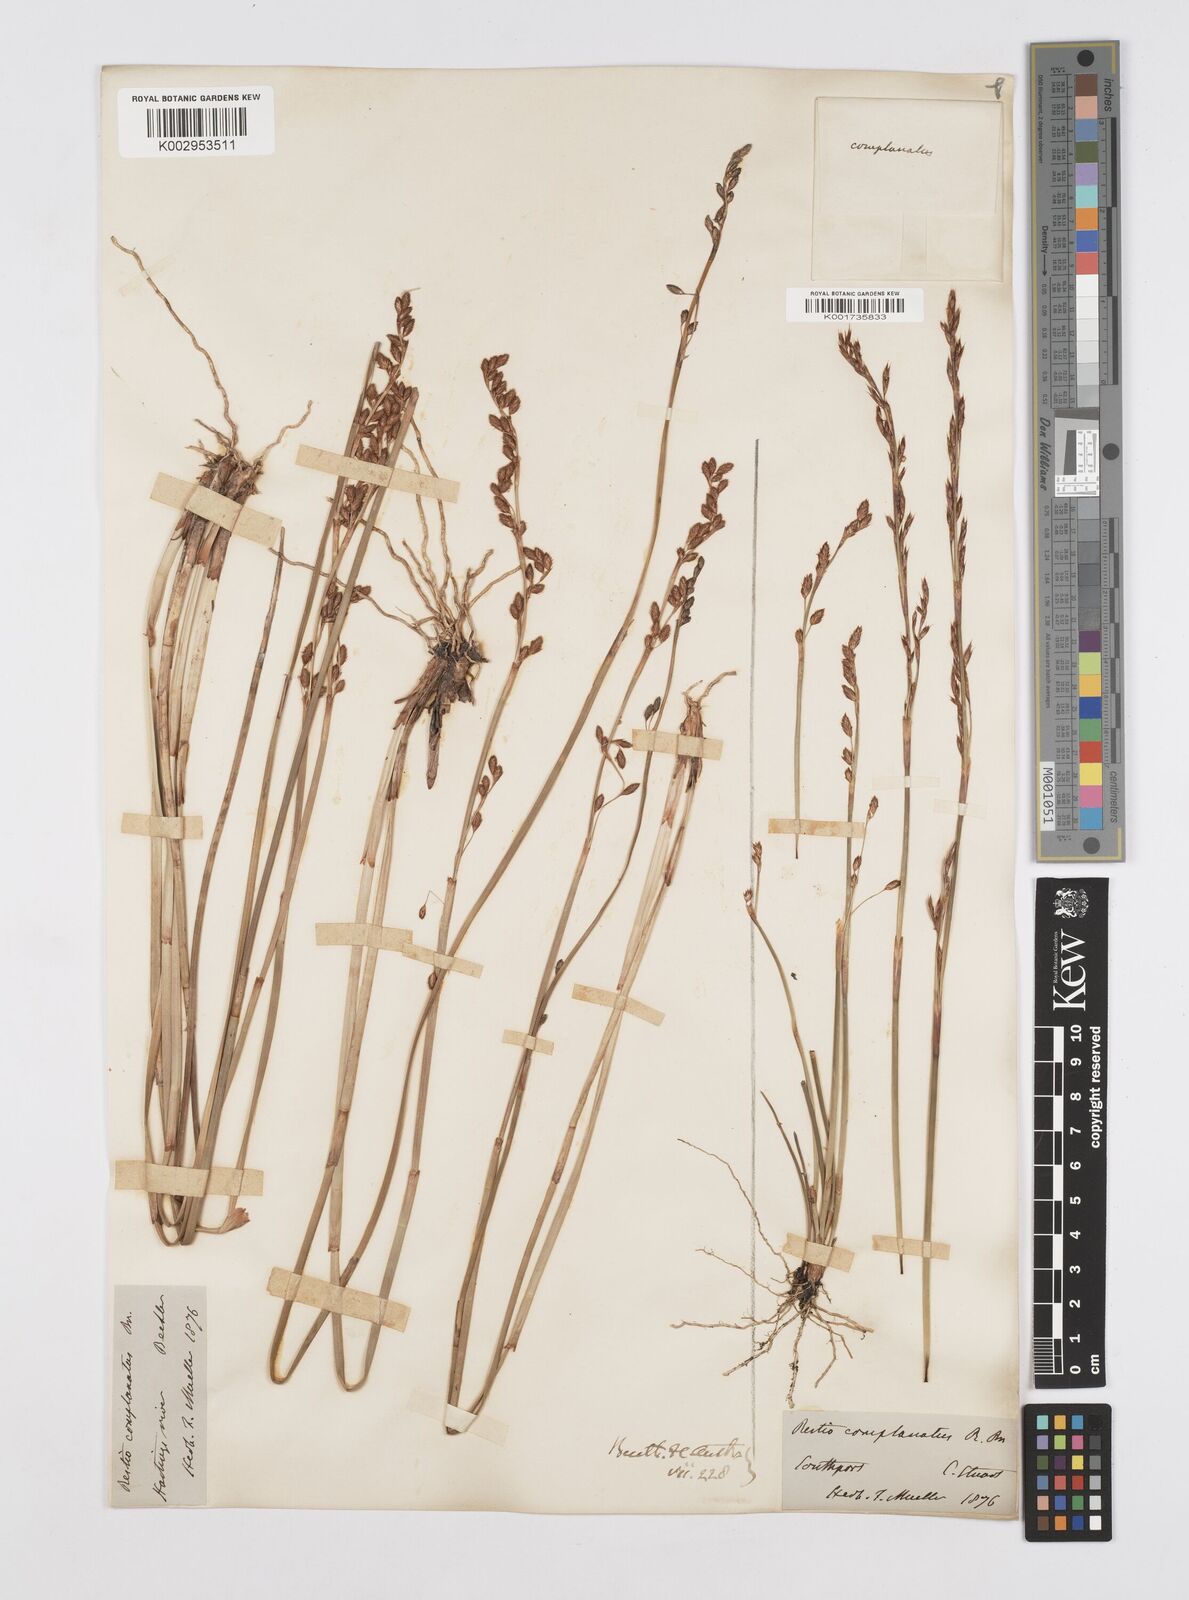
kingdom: Plantae
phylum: Tracheophyta
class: Liliopsida
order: Poales
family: Restionaceae
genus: Eurychorda
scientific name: Eurychorda complanata
